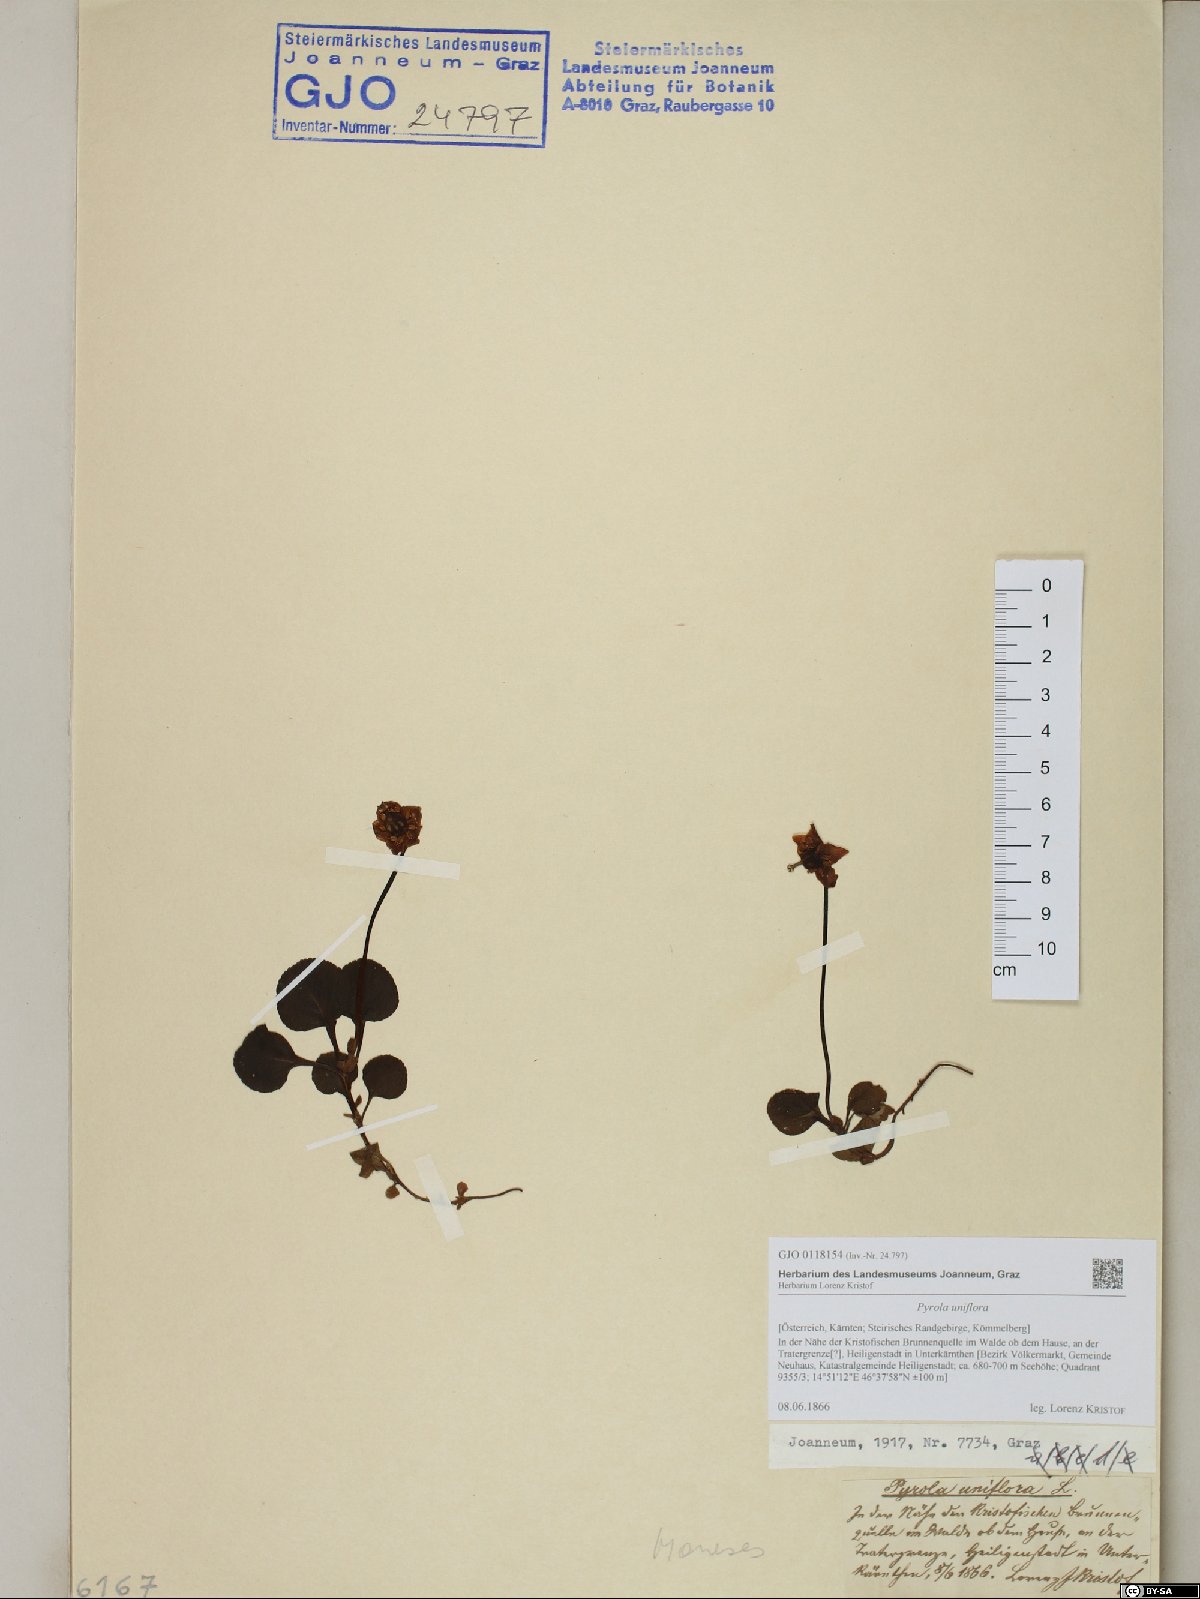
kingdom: Plantae
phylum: Tracheophyta
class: Magnoliopsida
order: Ericales
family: Ericaceae
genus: Moneses
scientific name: Moneses uniflora
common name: One-flowered wintergreen
